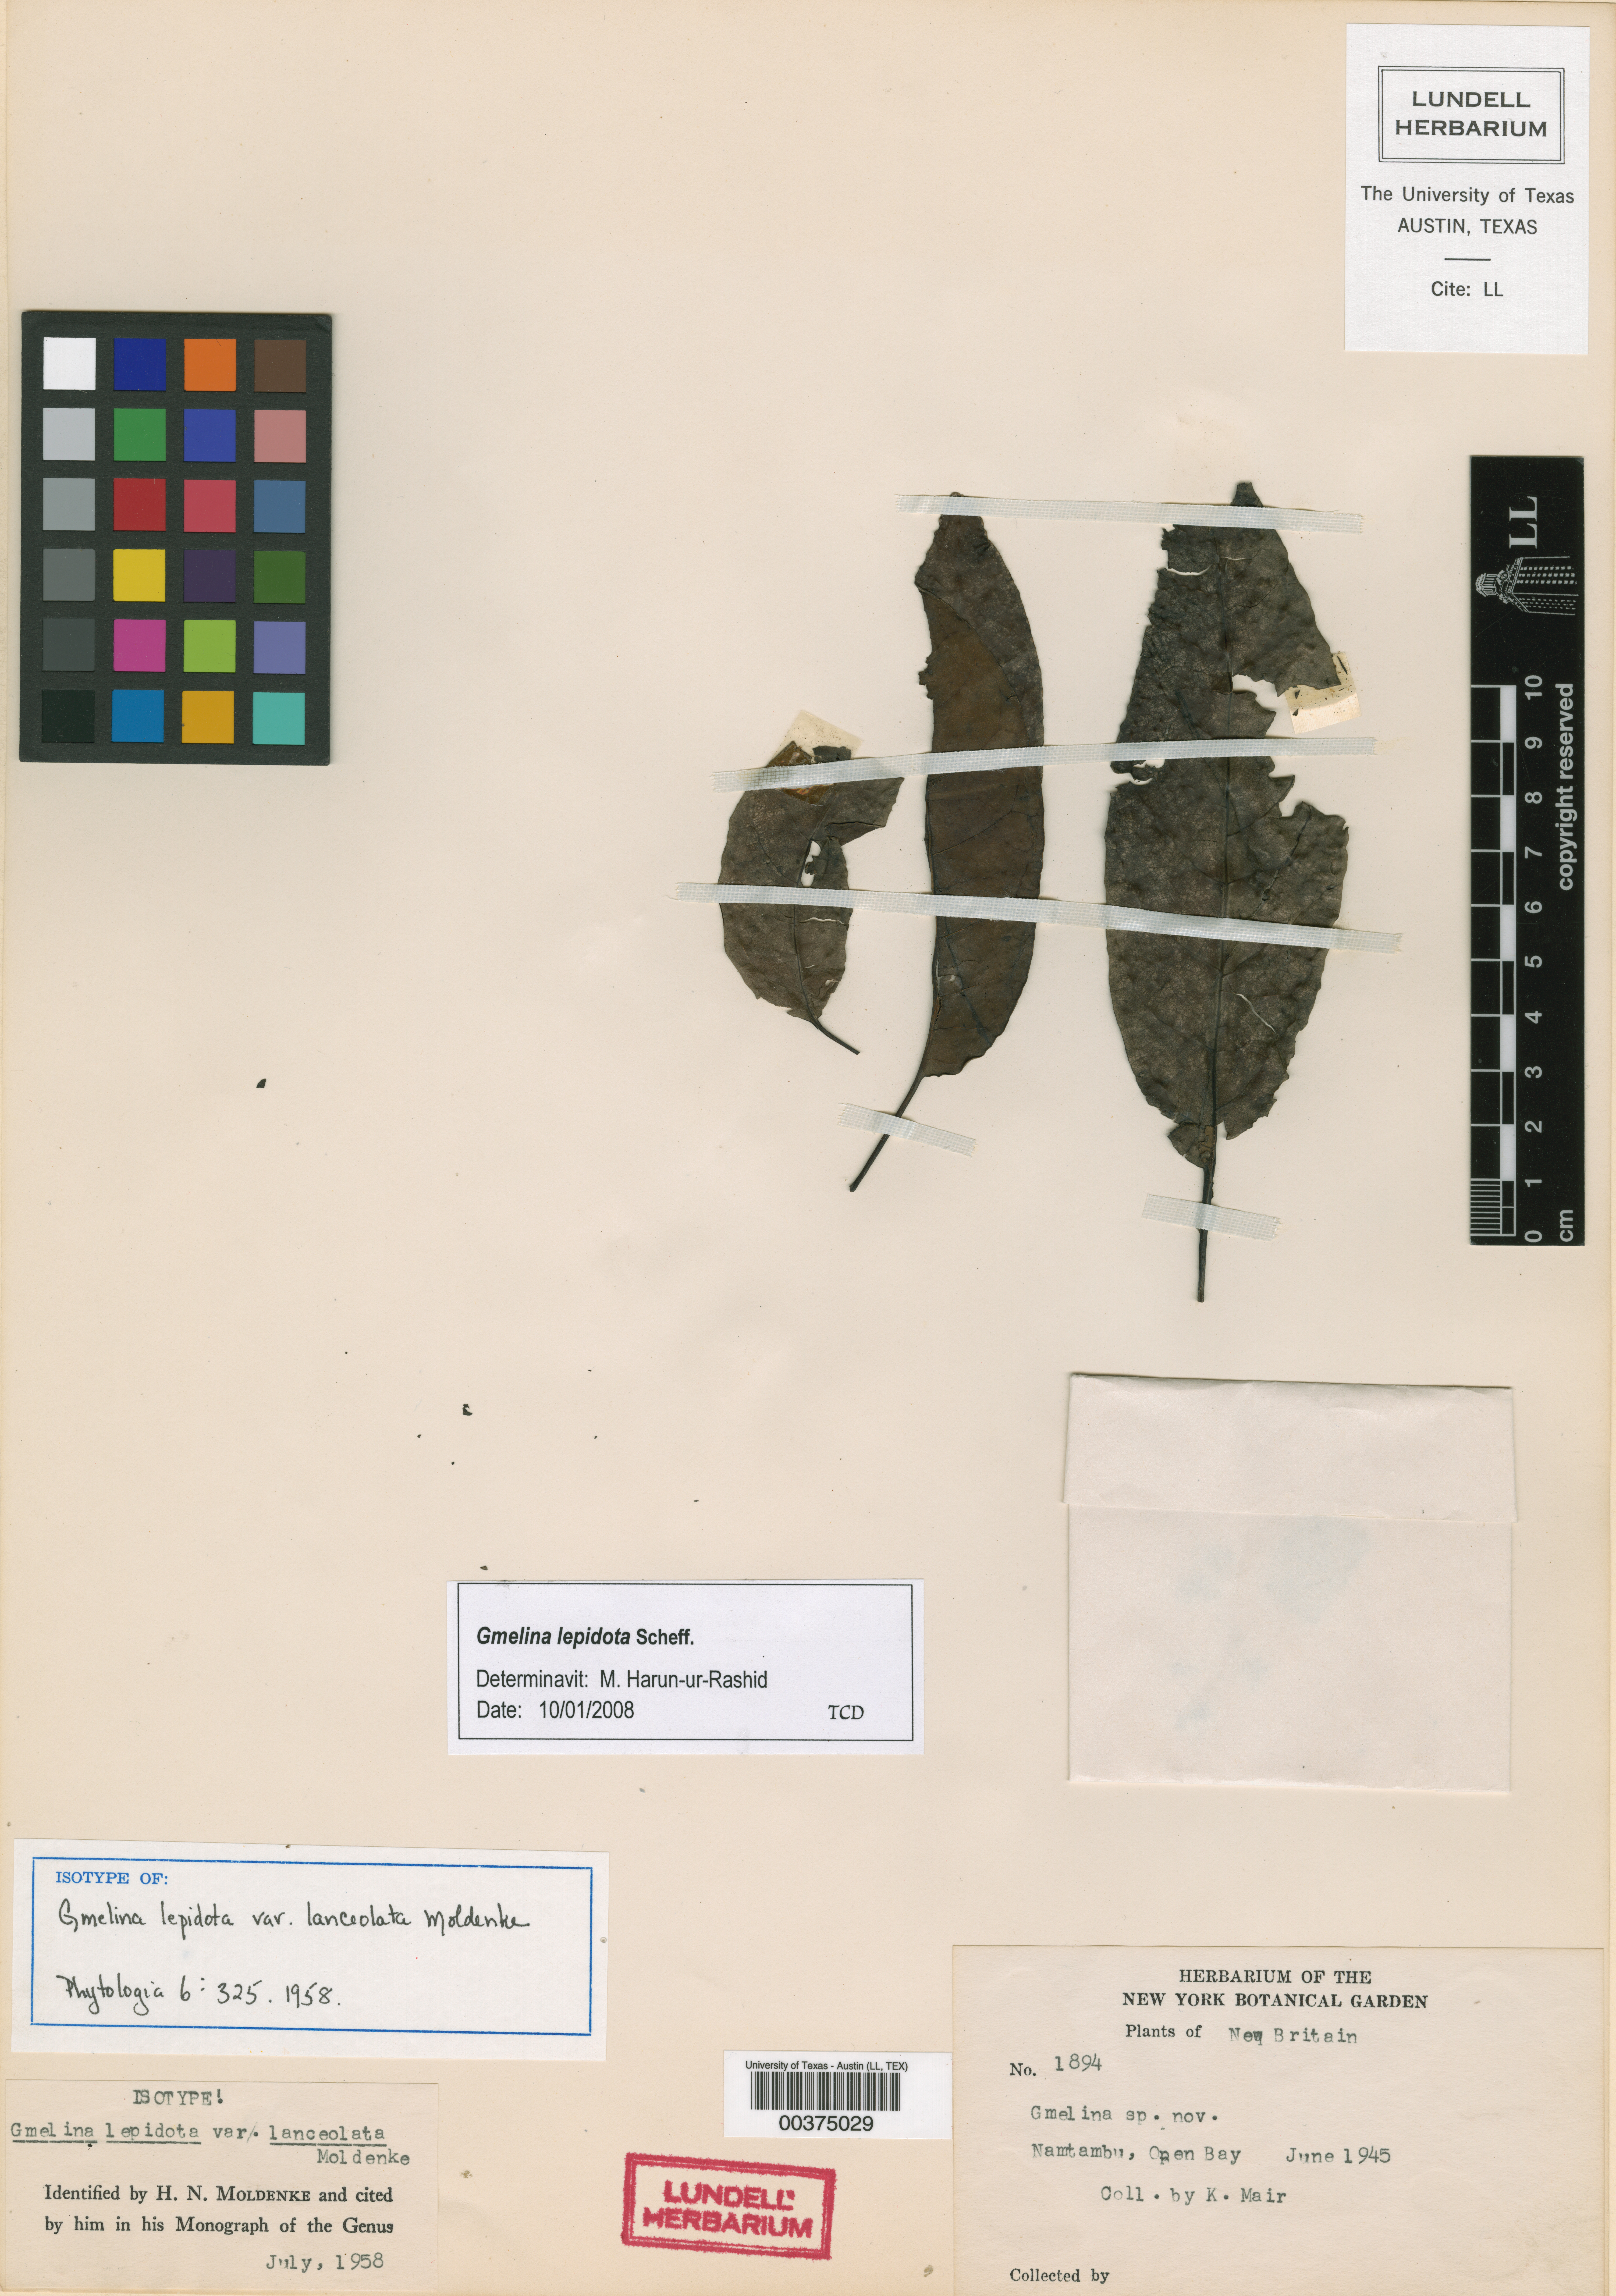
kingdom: Plantae
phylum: Tracheophyta
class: Magnoliopsida
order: Lamiales
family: Lamiaceae
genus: Gmelina
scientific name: Gmelina lepidota
